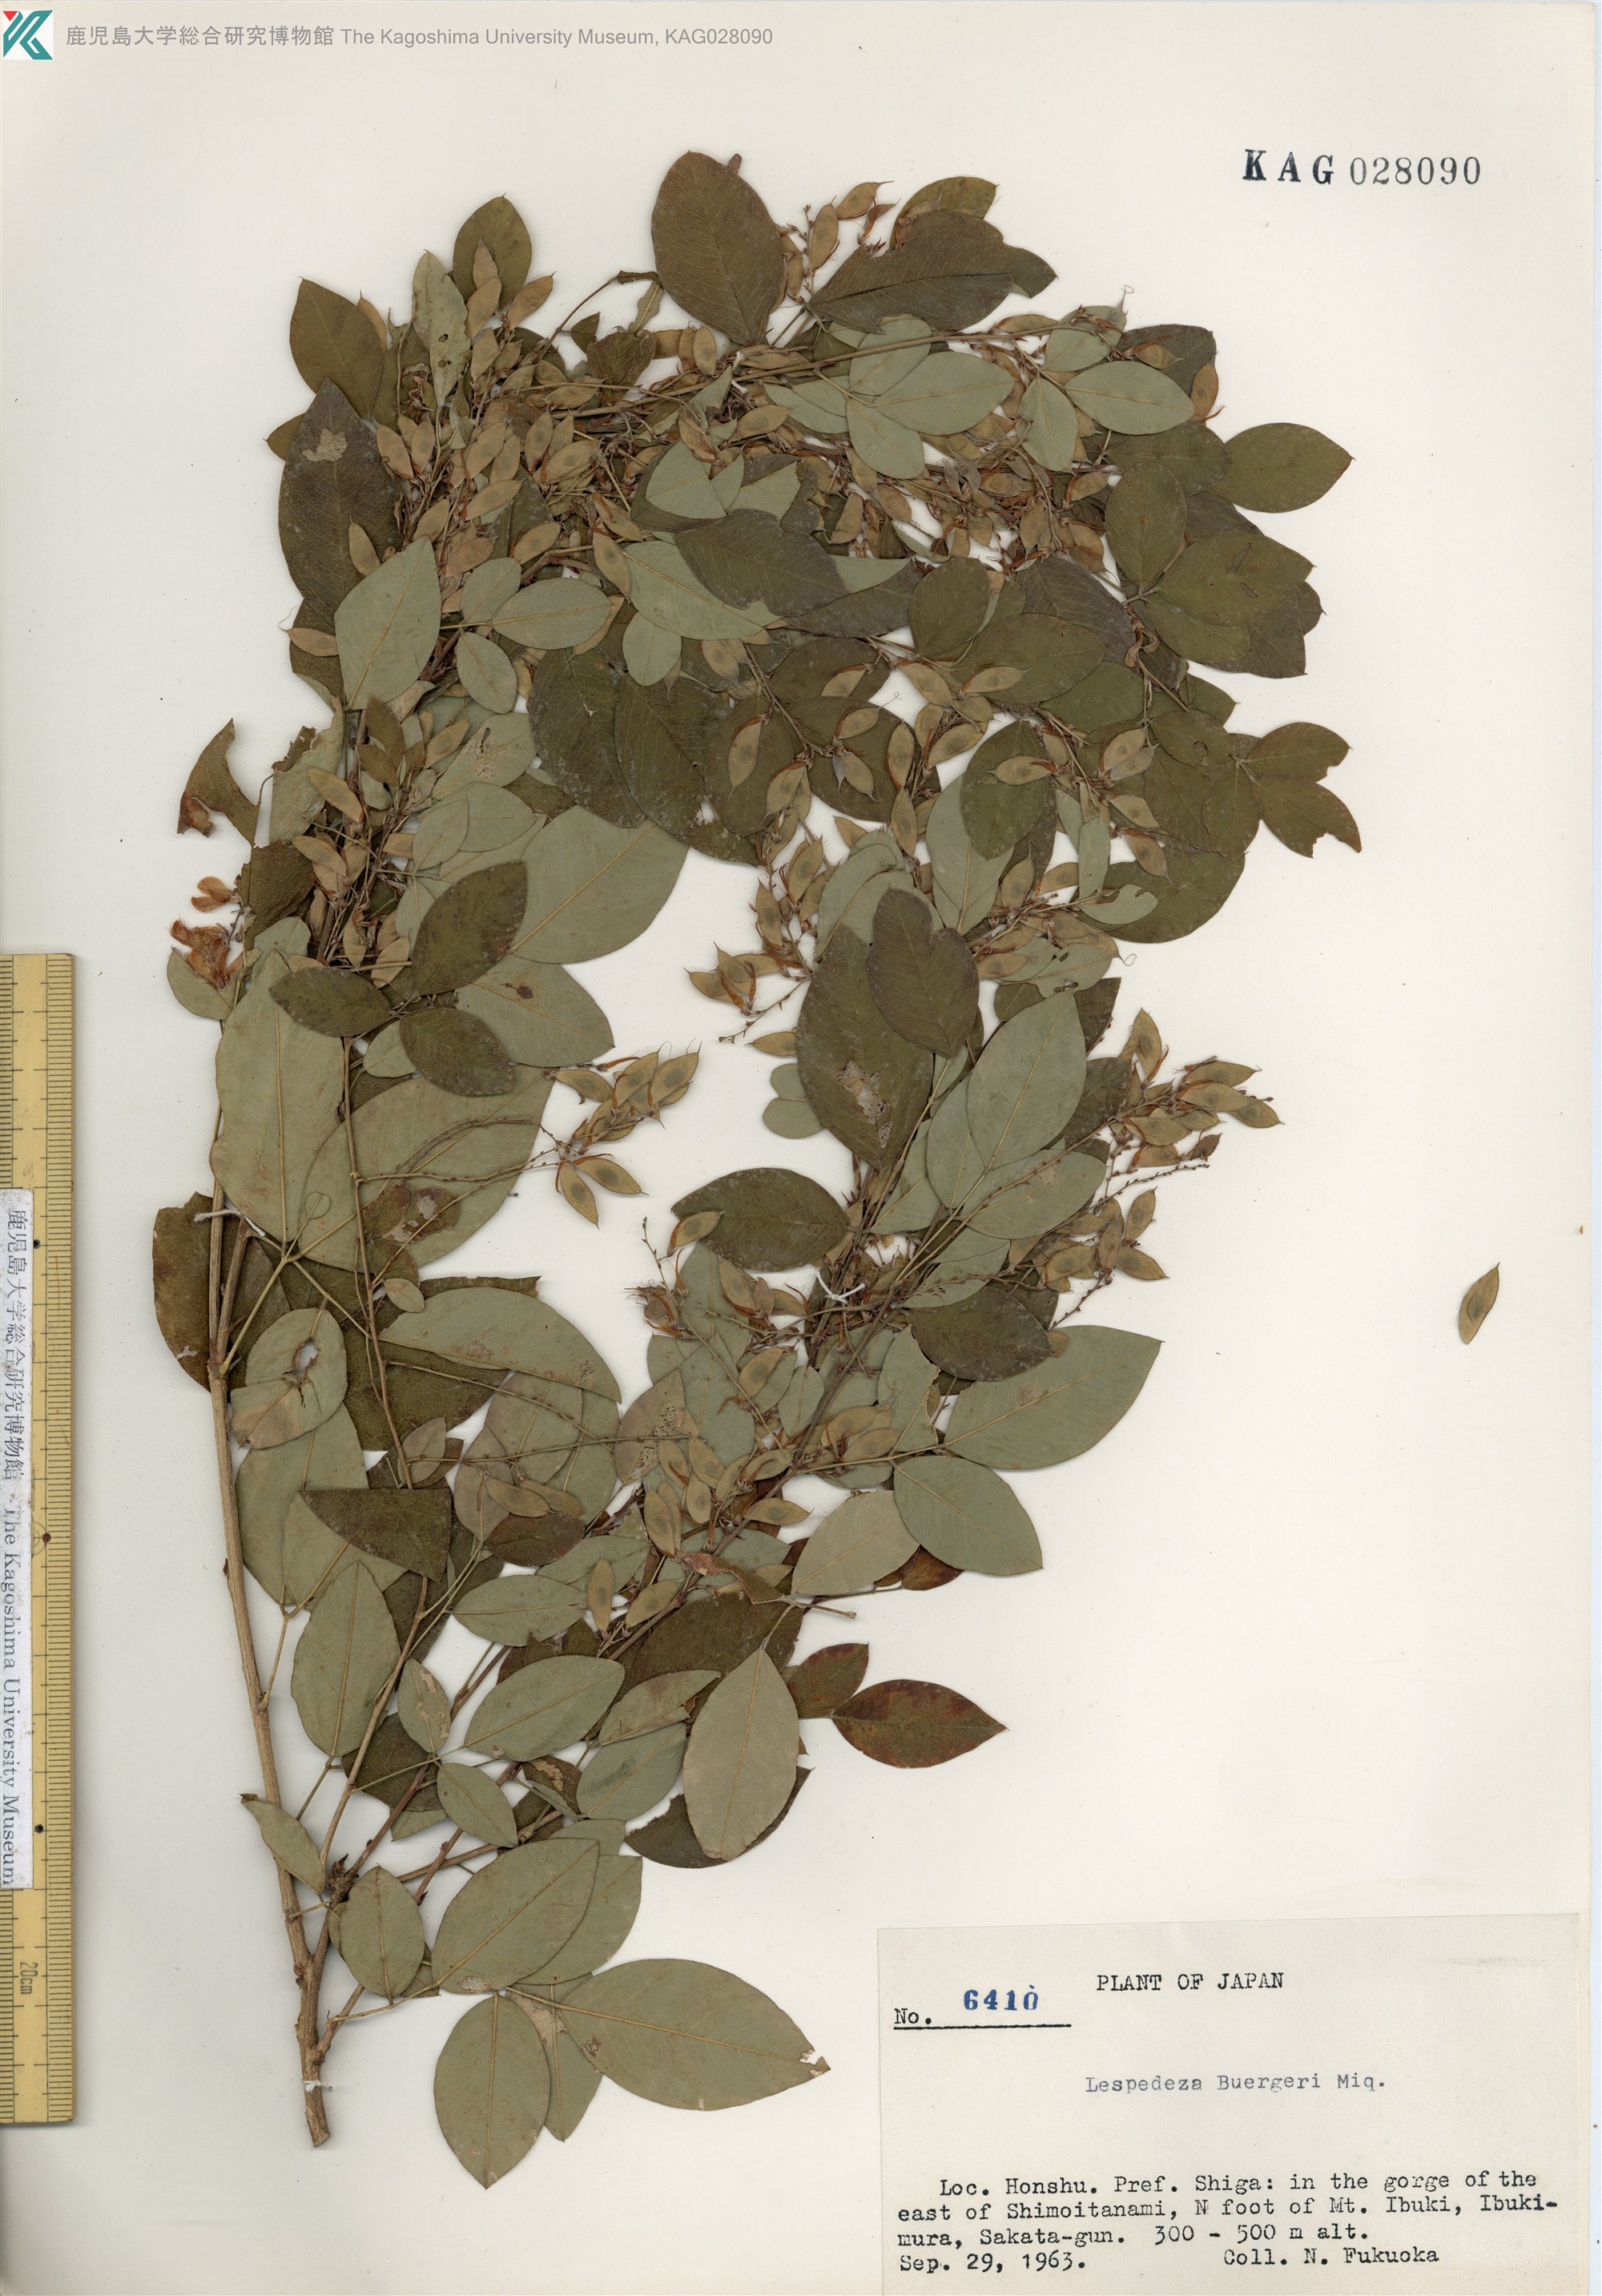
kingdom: Plantae
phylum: Tracheophyta
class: Magnoliopsida
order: Fabales
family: Fabaceae
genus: Lespedeza
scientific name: Lespedeza buergeri
